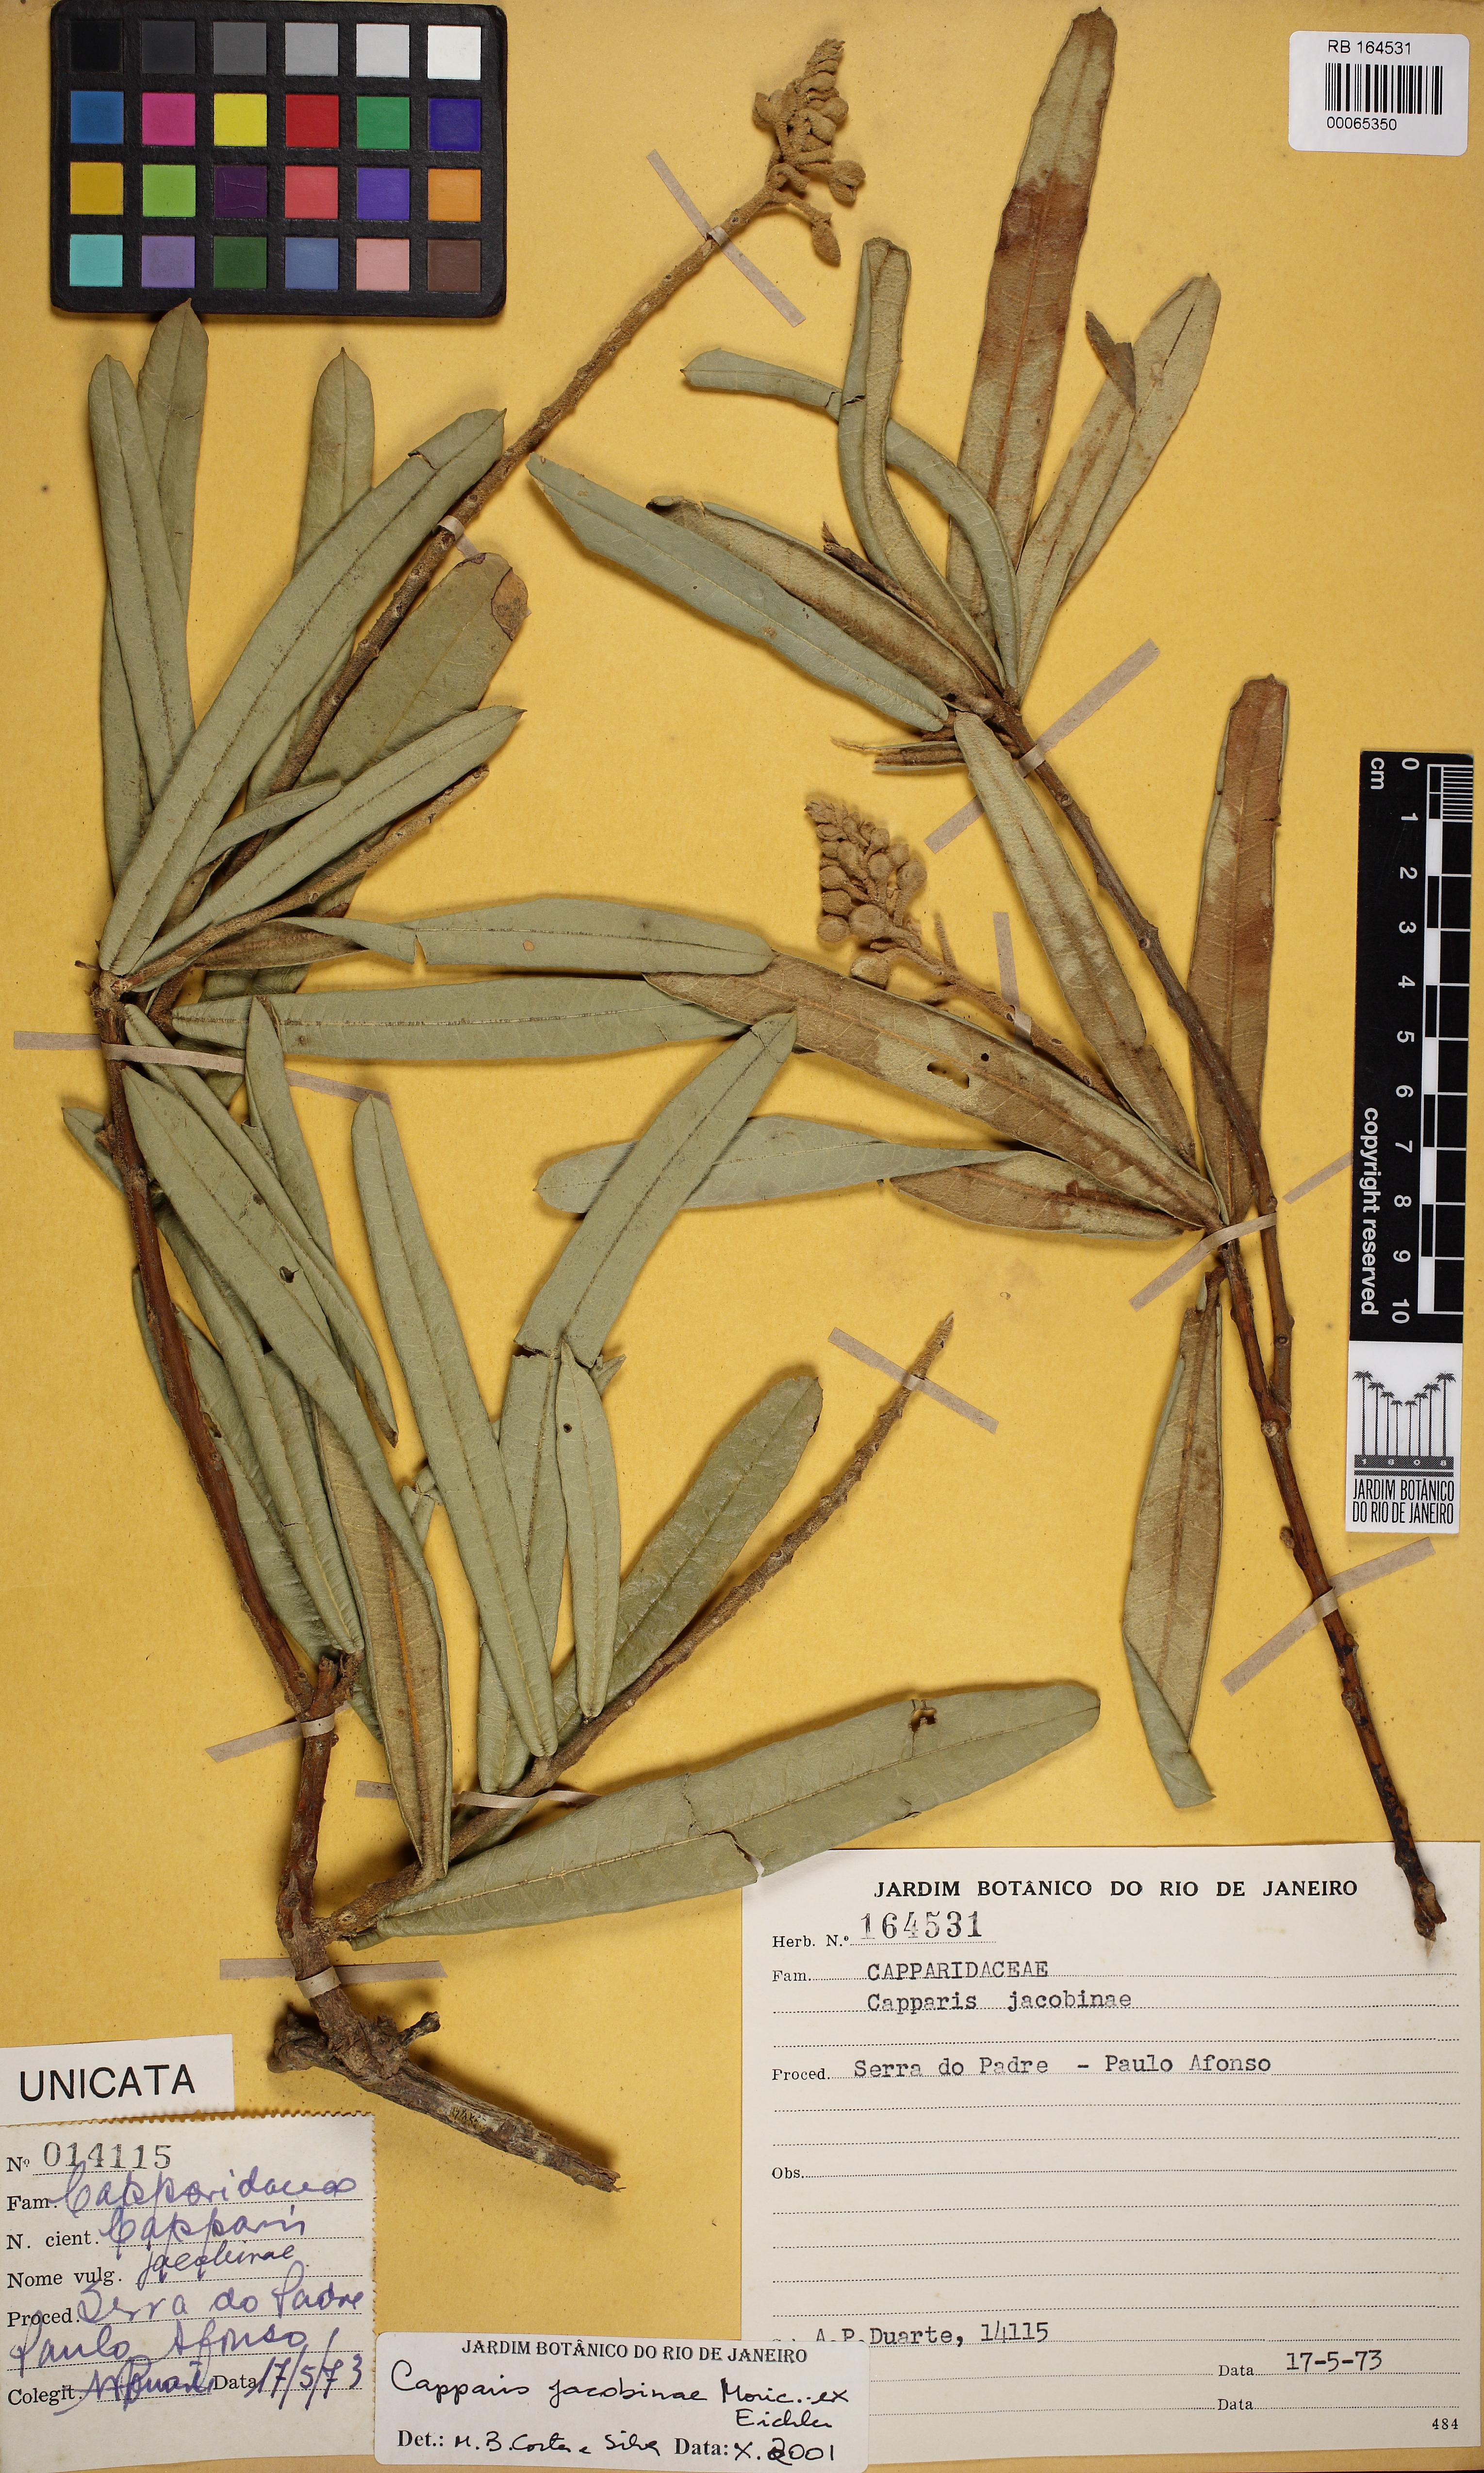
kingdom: Plantae
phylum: Tracheophyta
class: Magnoliopsida
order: Brassicales
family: Capparaceae
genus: Neocalyptrocalyx
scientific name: Neocalyptrocalyx longifolium
